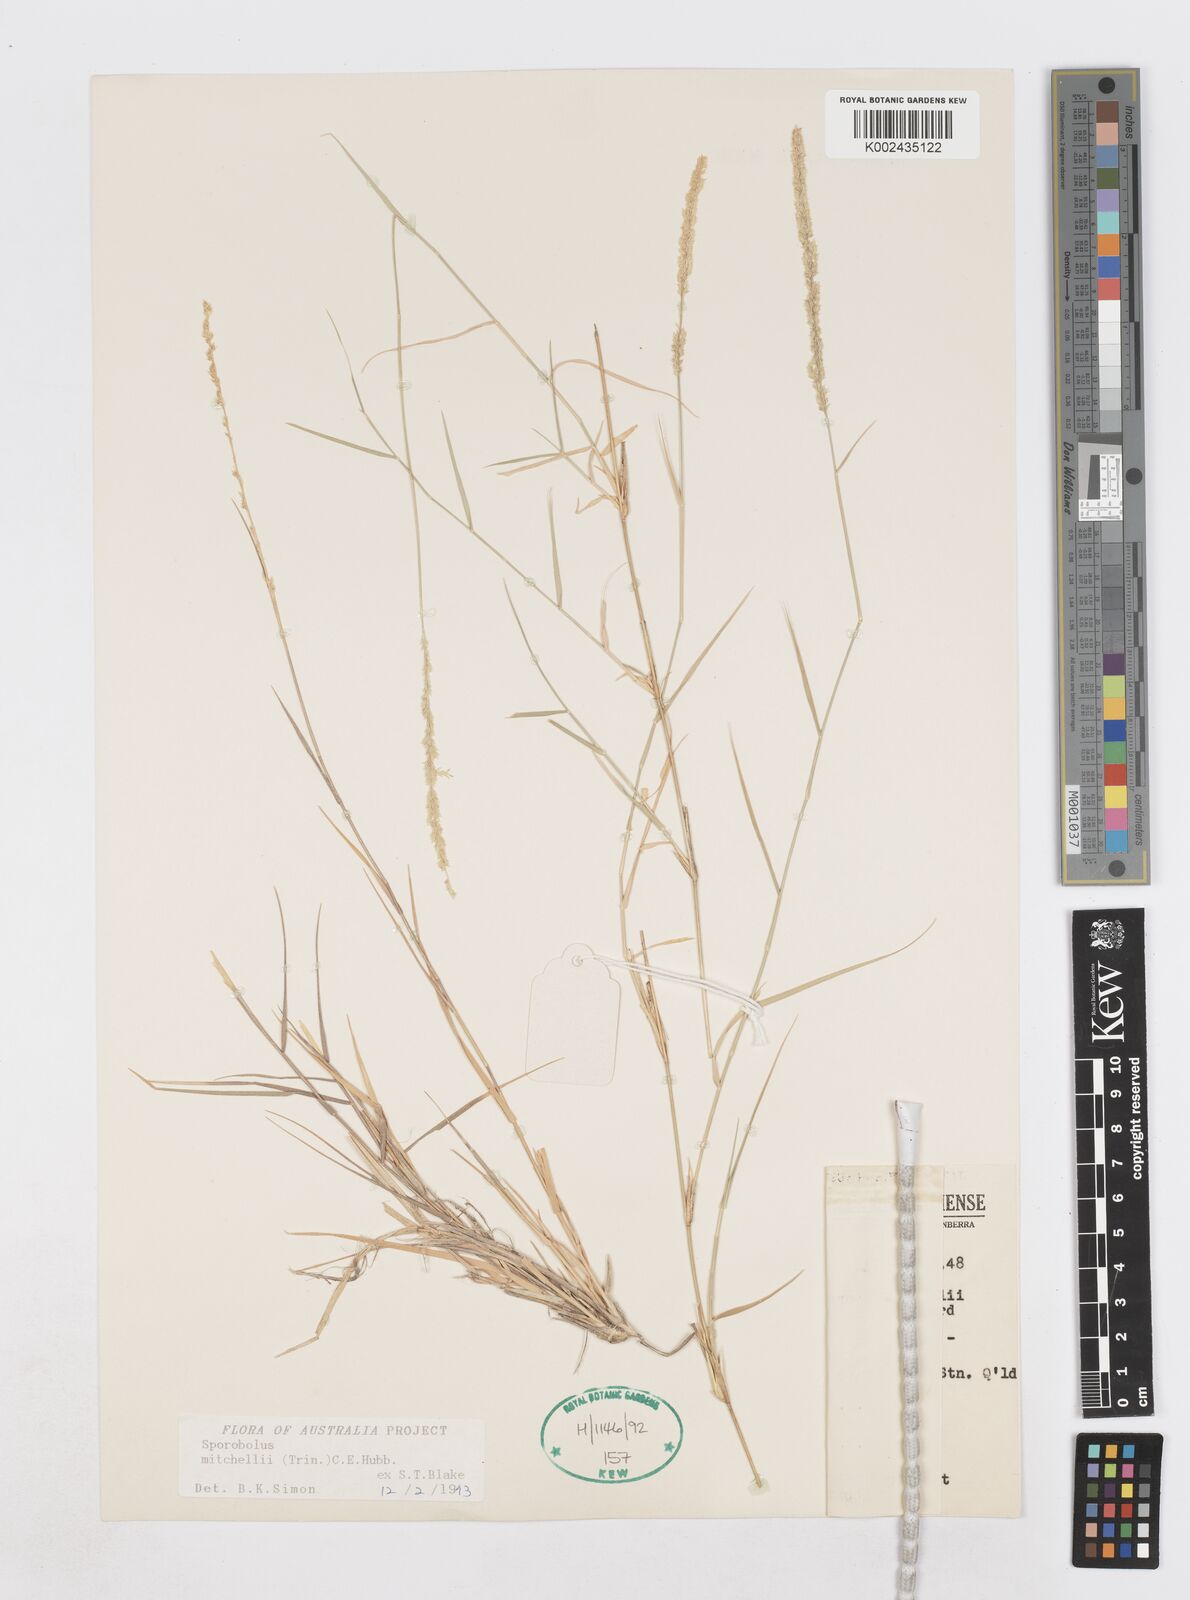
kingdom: Plantae
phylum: Tracheophyta
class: Liliopsida
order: Poales
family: Poaceae
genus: Sporobolus
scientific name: Sporobolus mitchellii
